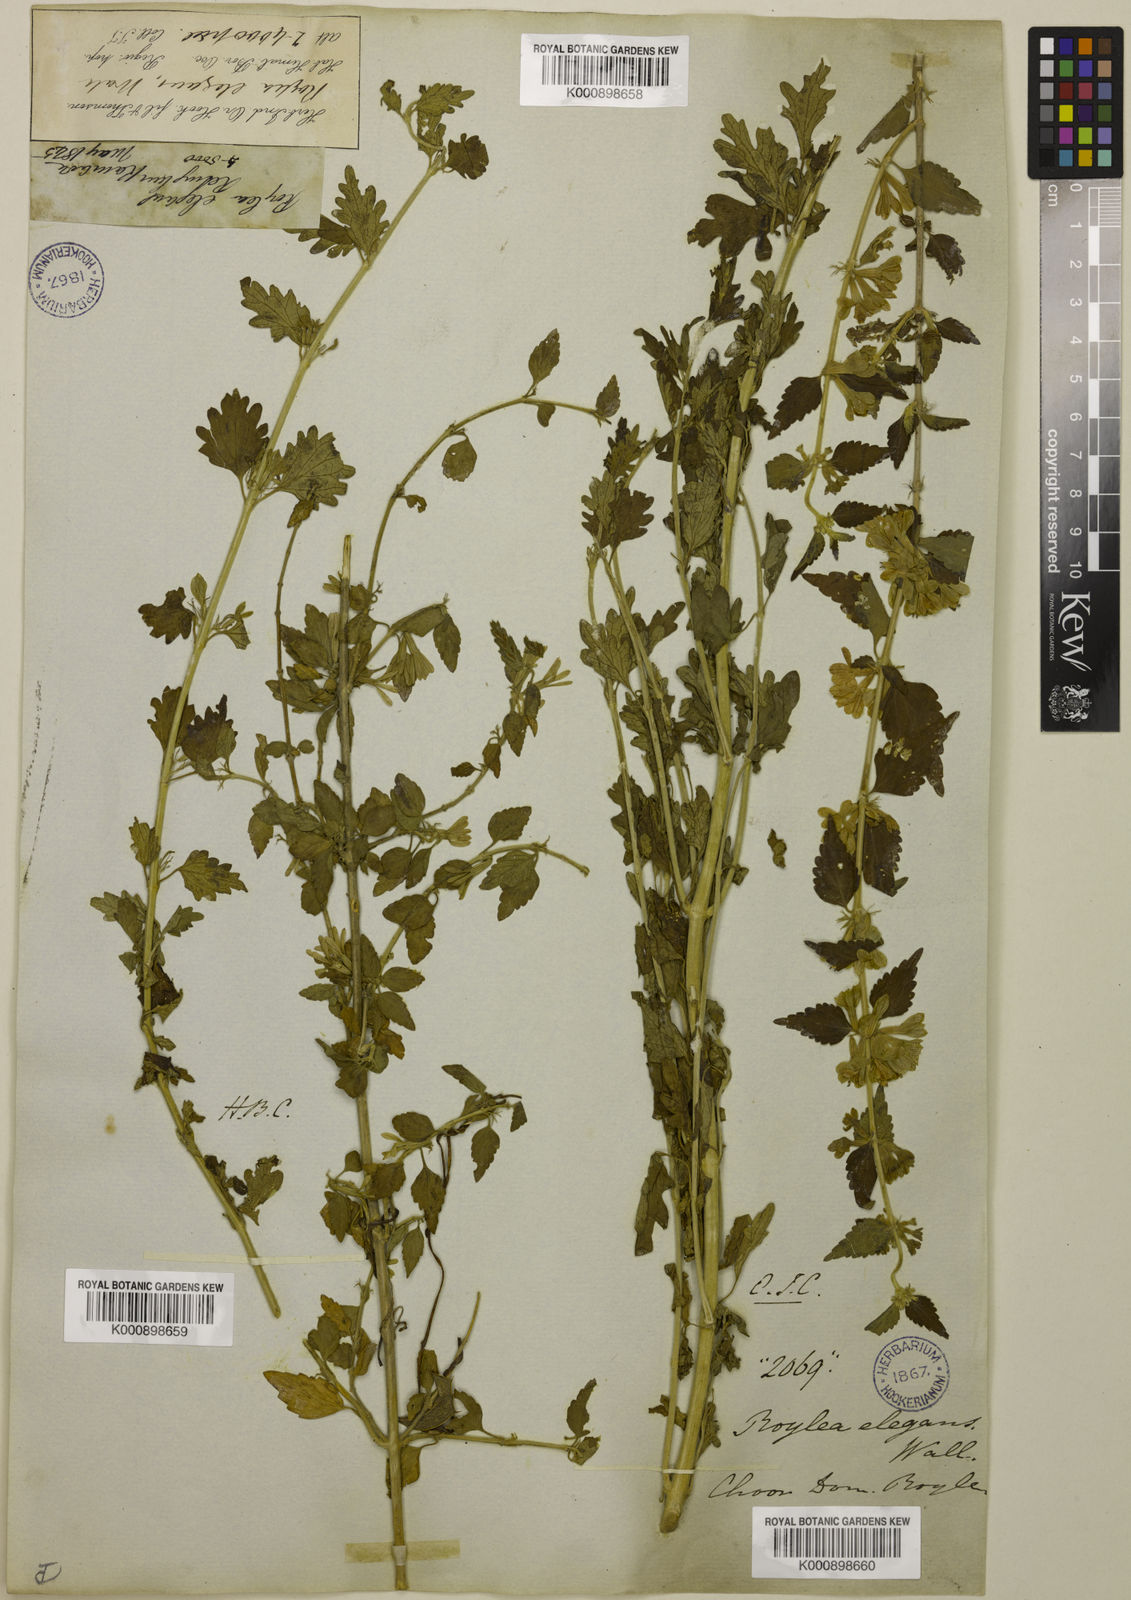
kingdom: Plantae
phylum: Tracheophyta
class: Magnoliopsida
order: Lamiales
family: Lamiaceae
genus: Roylea
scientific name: Roylea
